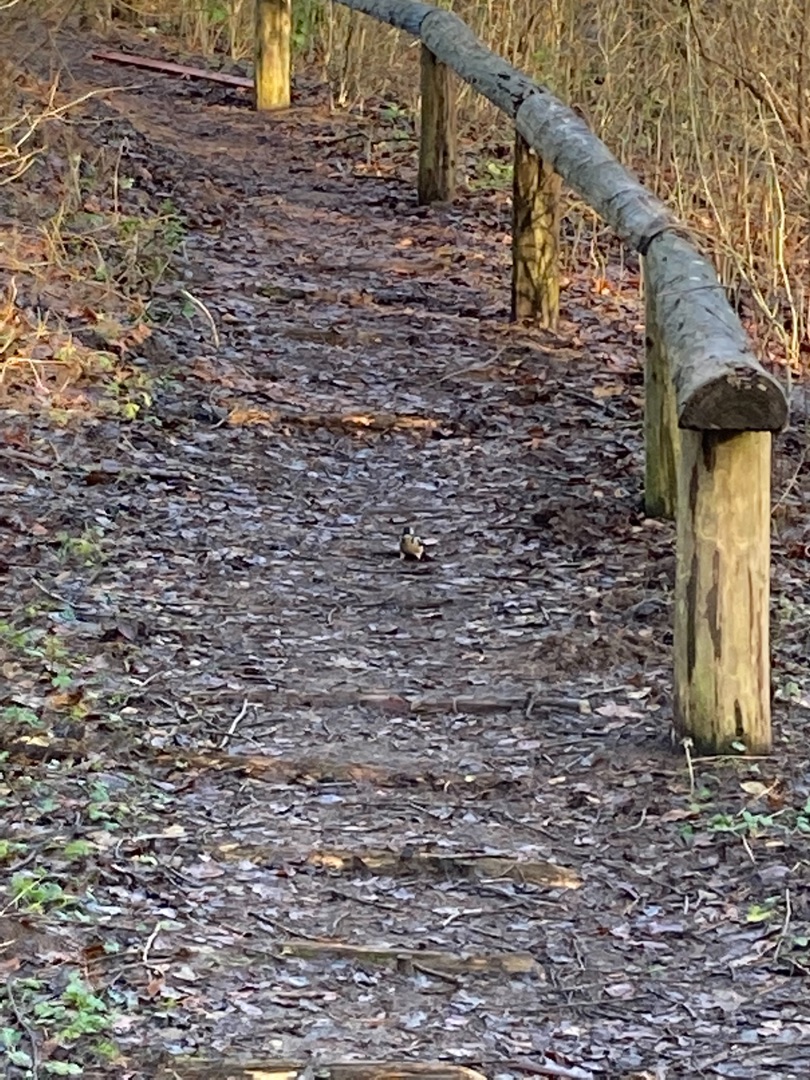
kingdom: Animalia
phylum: Chordata
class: Aves
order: Piciformes
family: Picidae
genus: Dendrocopos
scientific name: Dendrocopos major
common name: Stor flagspætte
